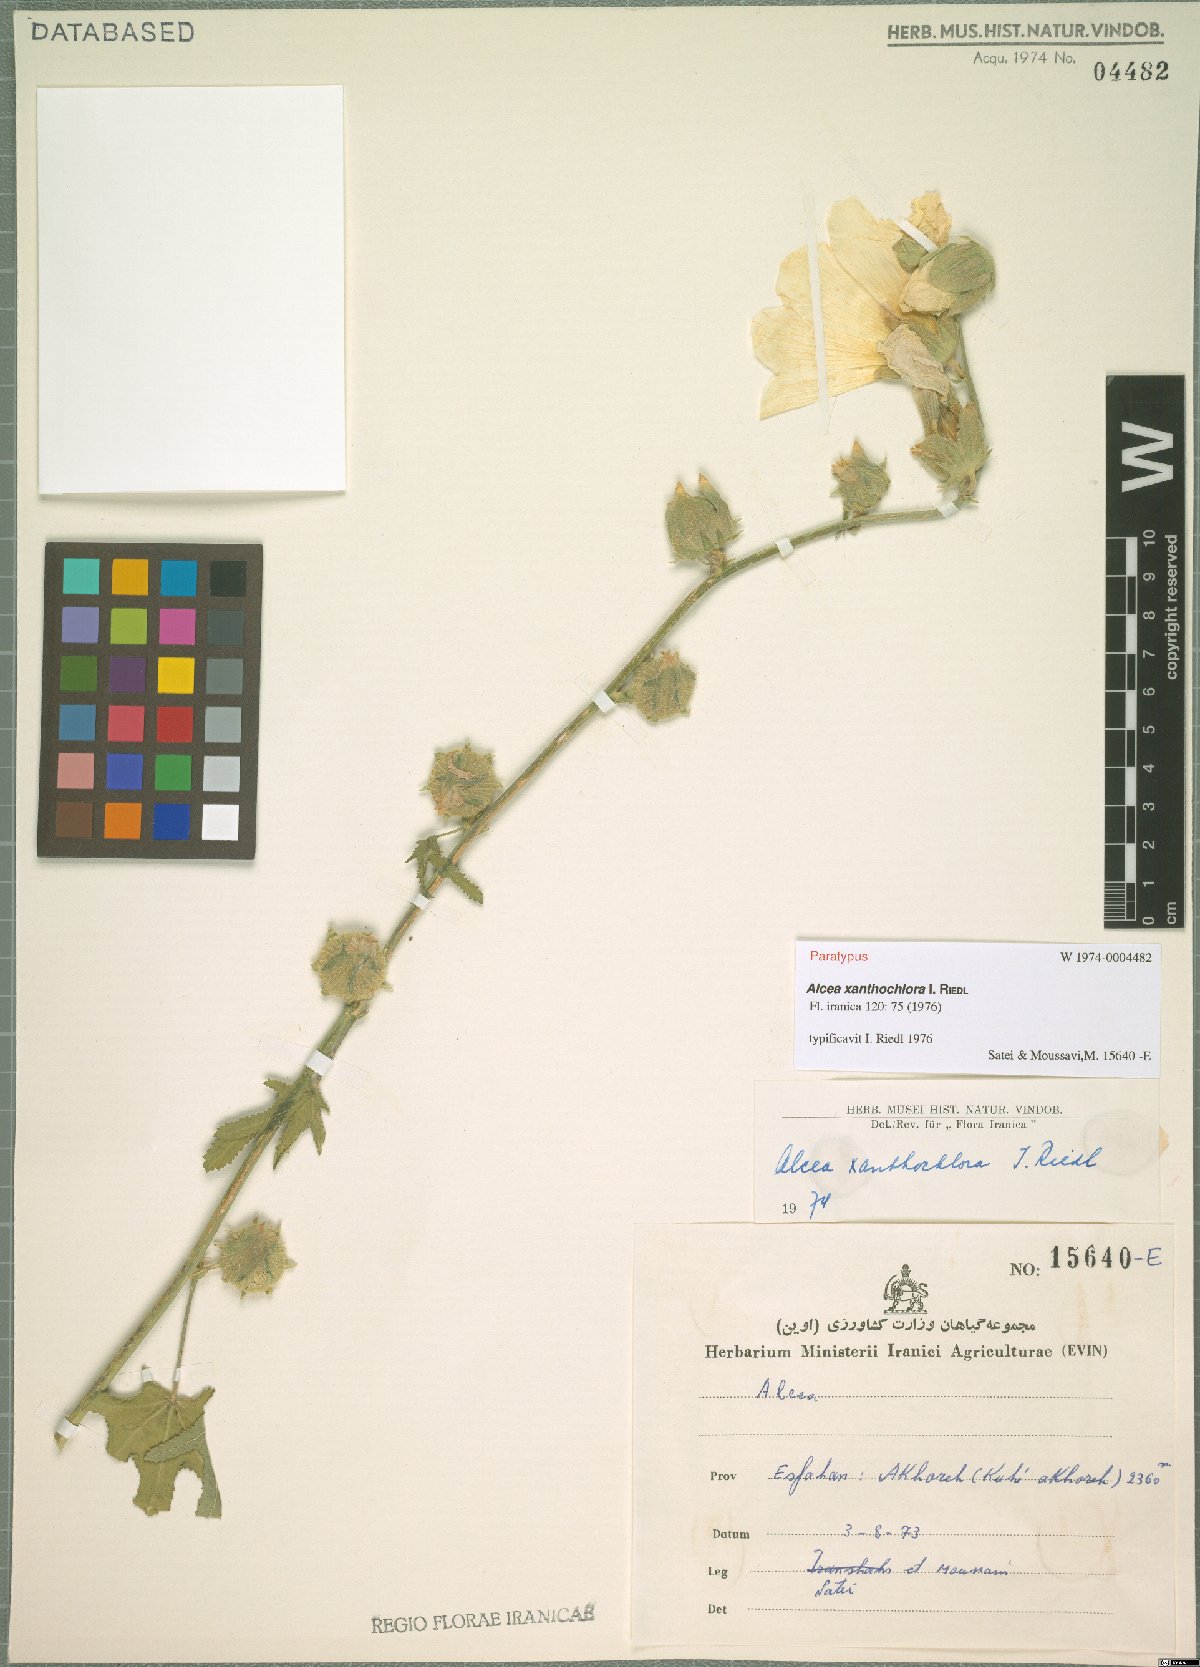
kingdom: Plantae
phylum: Tracheophyta
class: Magnoliopsida
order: Malvales
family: Malvaceae
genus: Alcea
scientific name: Alcea xanthochlora
